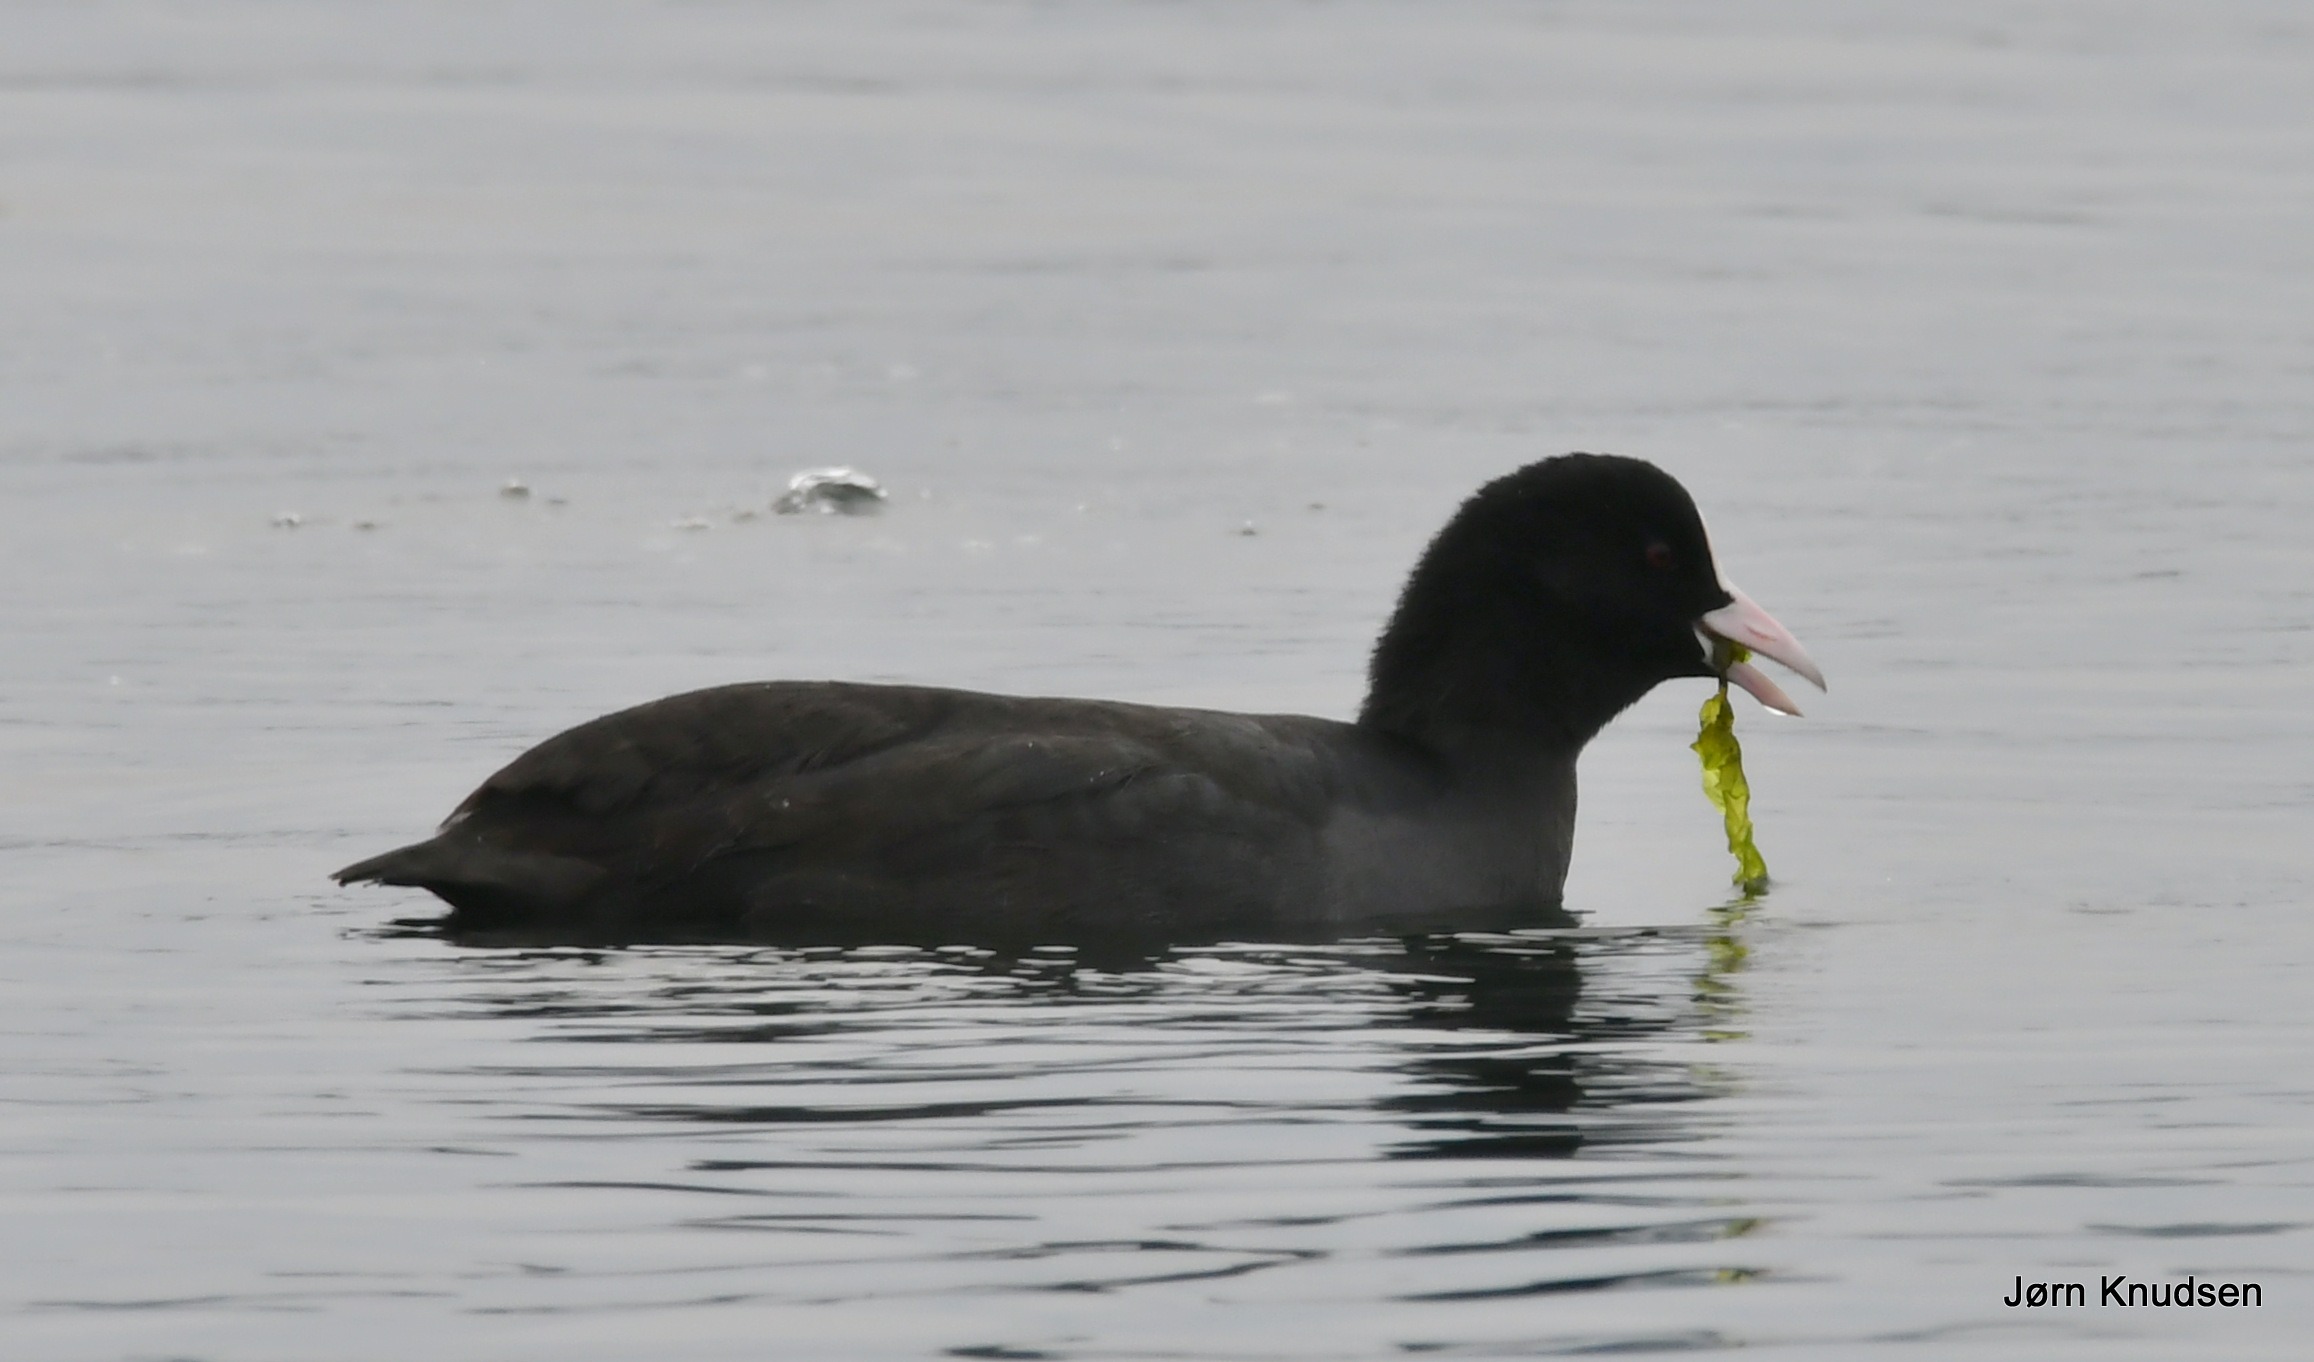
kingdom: Animalia
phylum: Chordata
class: Aves
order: Gruiformes
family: Rallidae
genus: Fulica
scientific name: Fulica atra
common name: Blishøne
